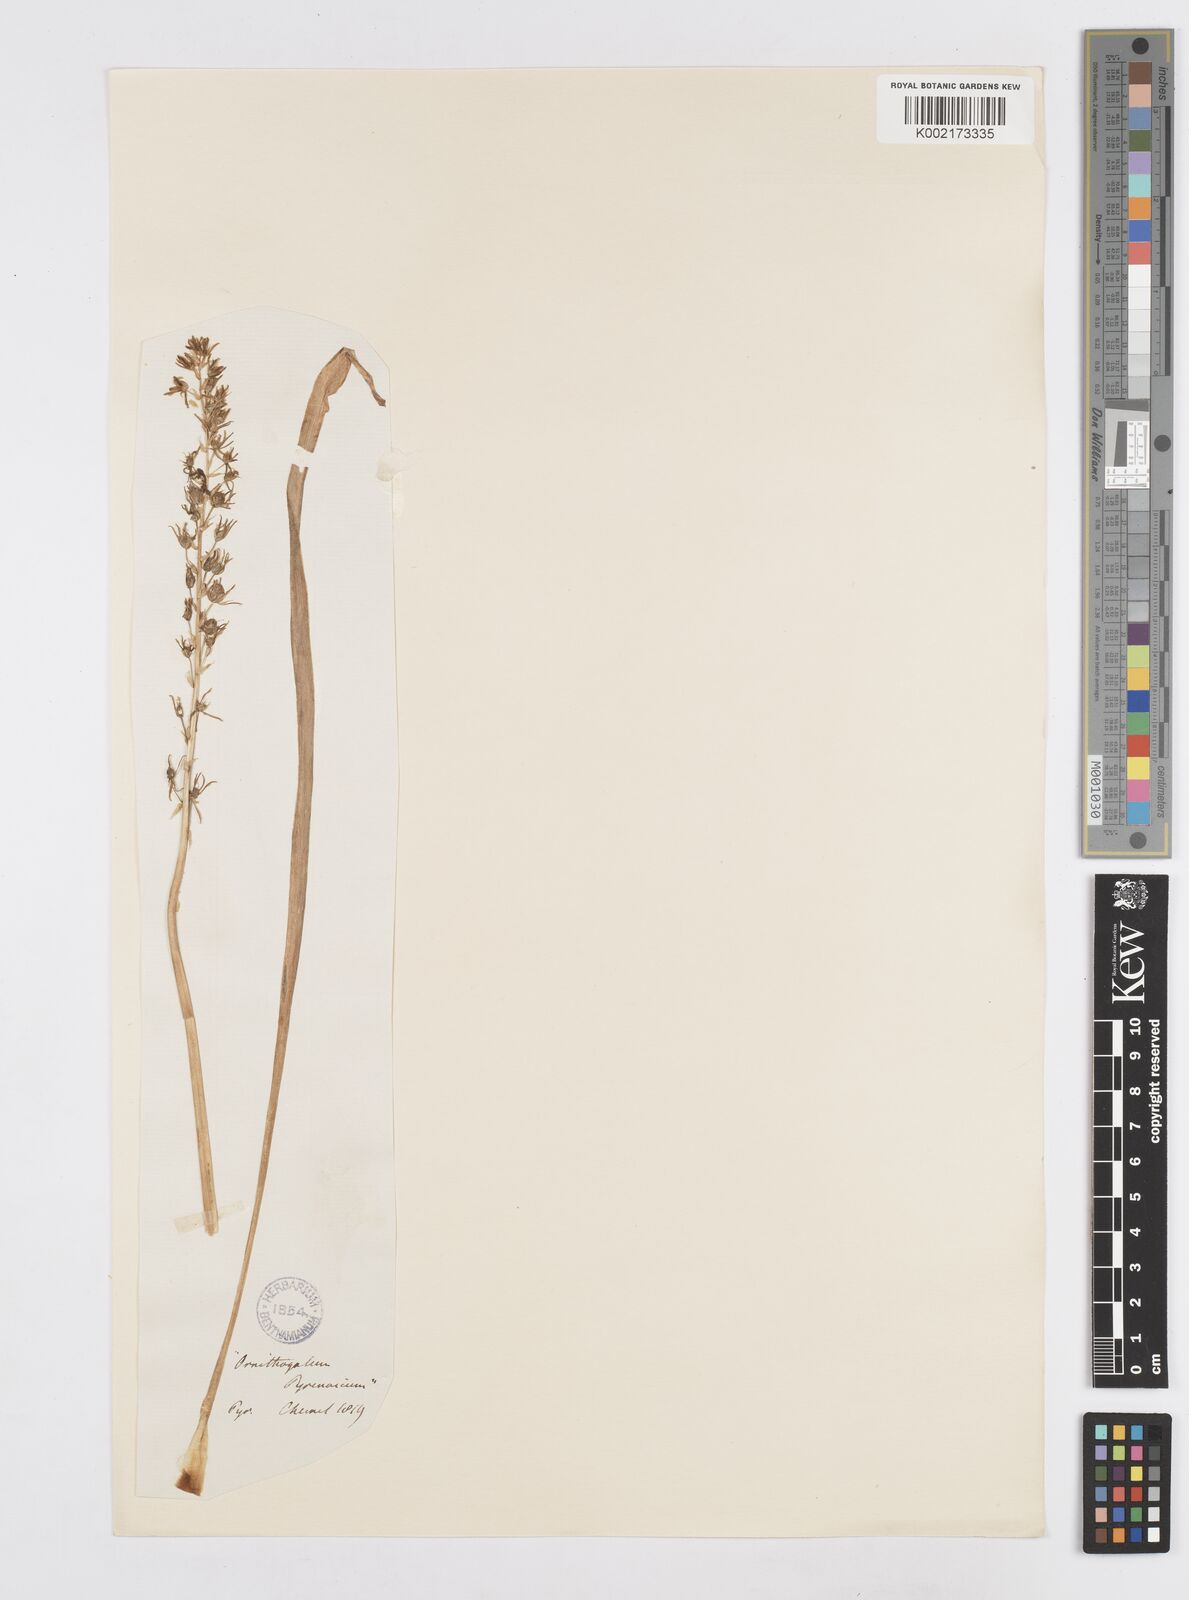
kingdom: Plantae
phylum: Tracheophyta
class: Liliopsida
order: Asparagales
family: Asparagaceae
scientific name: Asparagaceae
